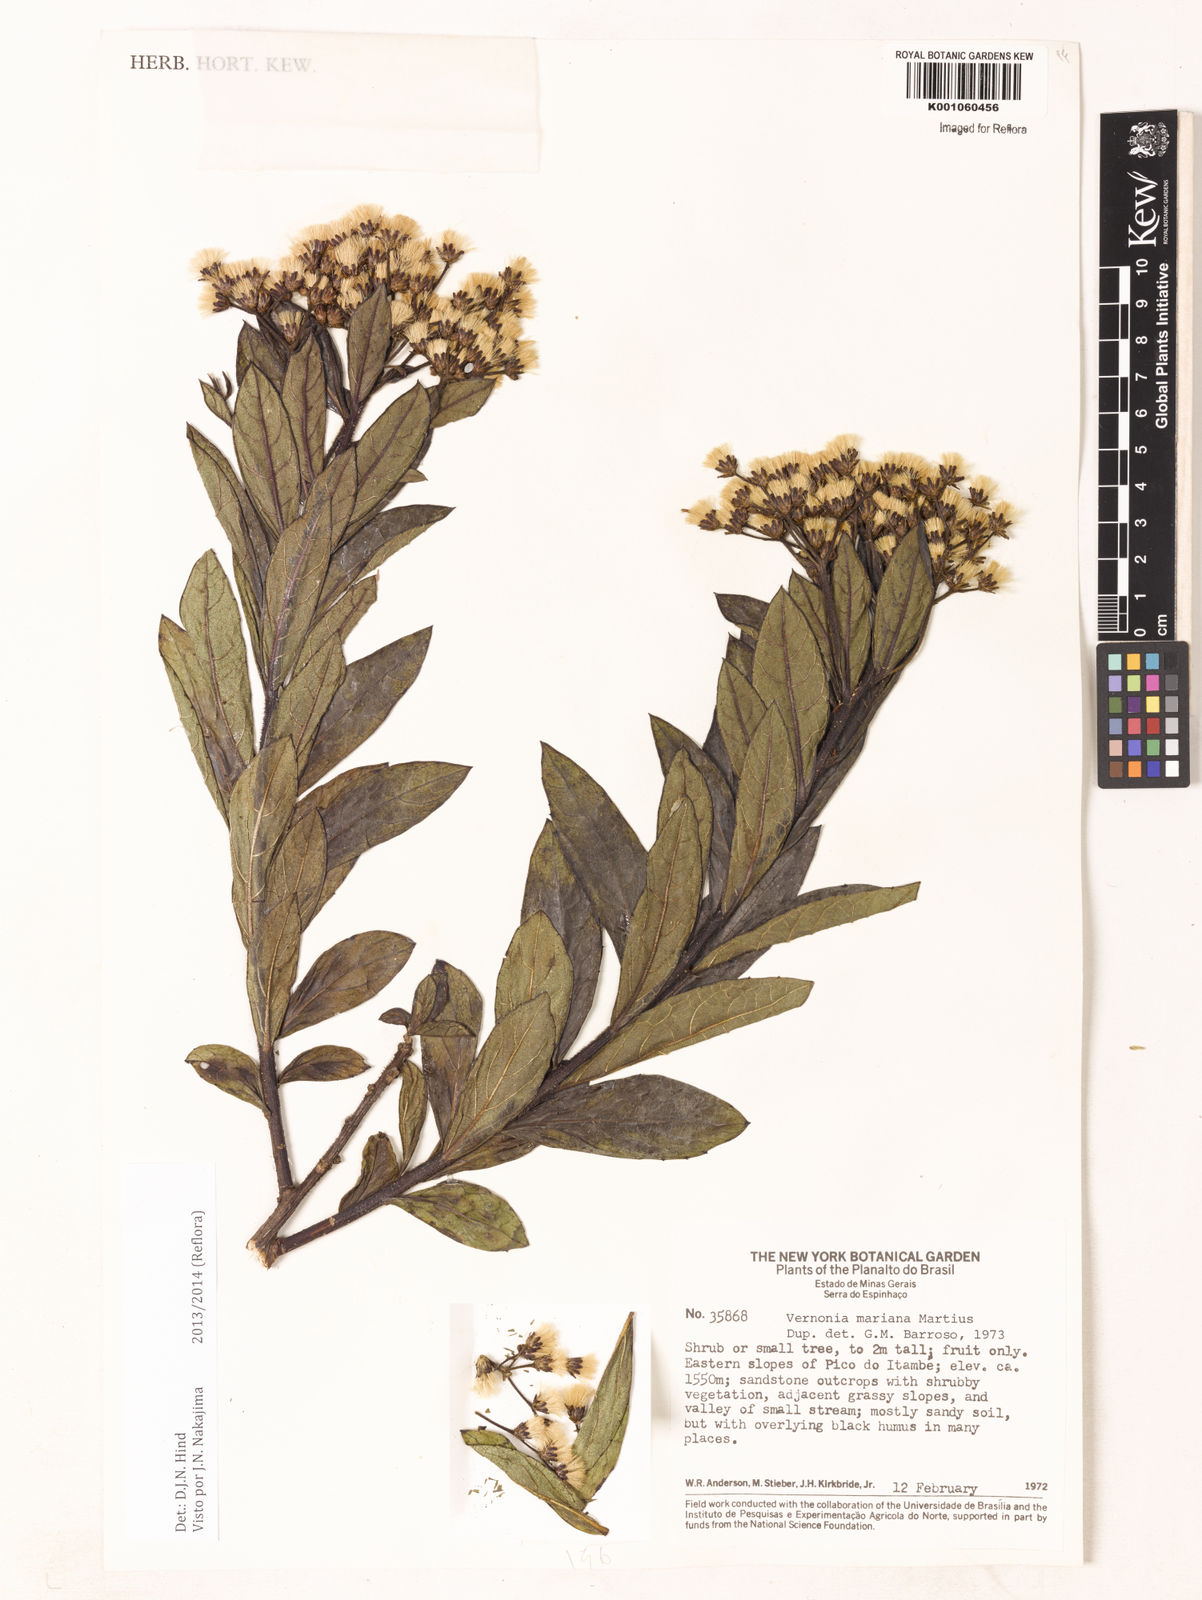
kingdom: Plantae
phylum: Tracheophyta
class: Magnoliopsida
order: Asterales
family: Asteraceae
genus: Vernonanthura
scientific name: Vernonanthura cymosa
